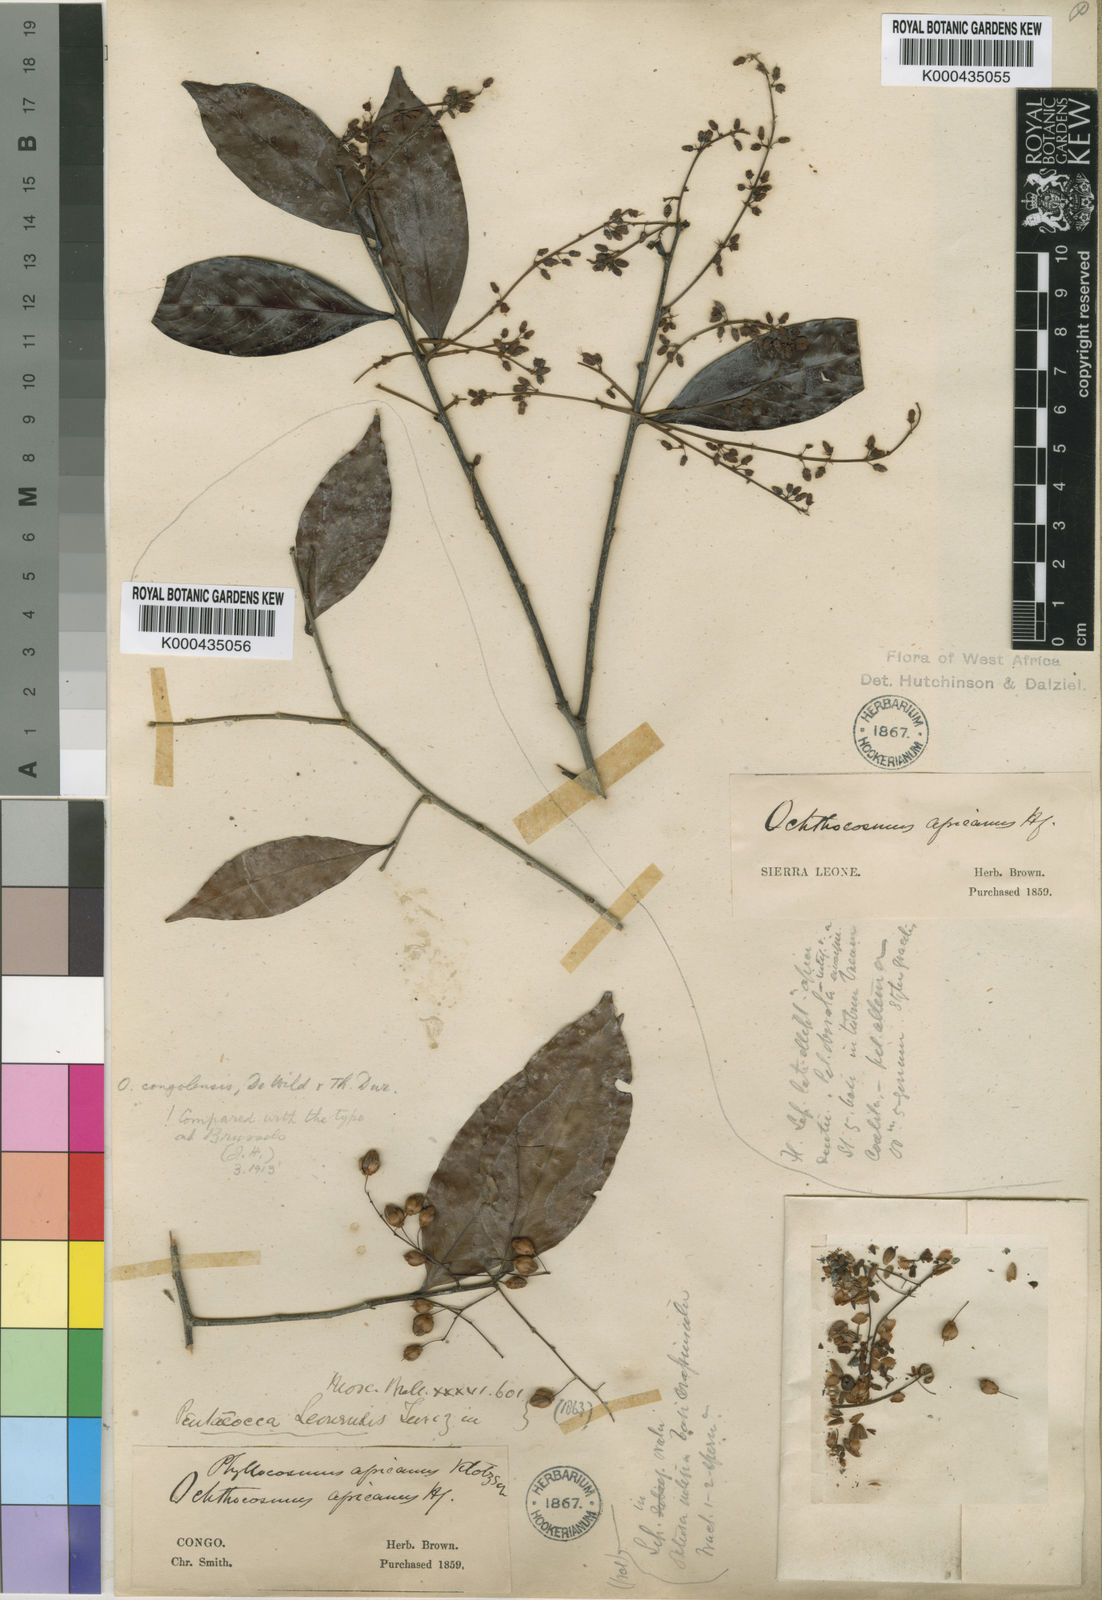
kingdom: Plantae
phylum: Tracheophyta
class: Magnoliopsida
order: Malpighiales
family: Ixonanthaceae
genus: Phyllocosmus
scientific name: Phyllocosmus africanus
